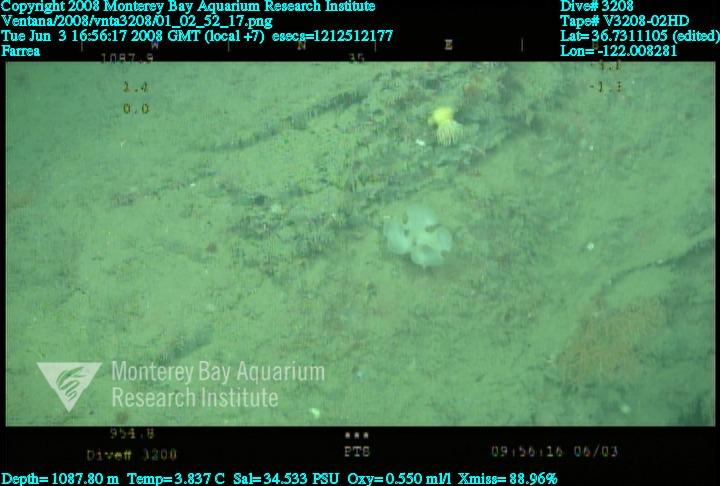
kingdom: Animalia
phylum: Porifera
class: Hexactinellida
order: Sceptrulophora
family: Farreidae
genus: Farrea
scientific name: Farrea
